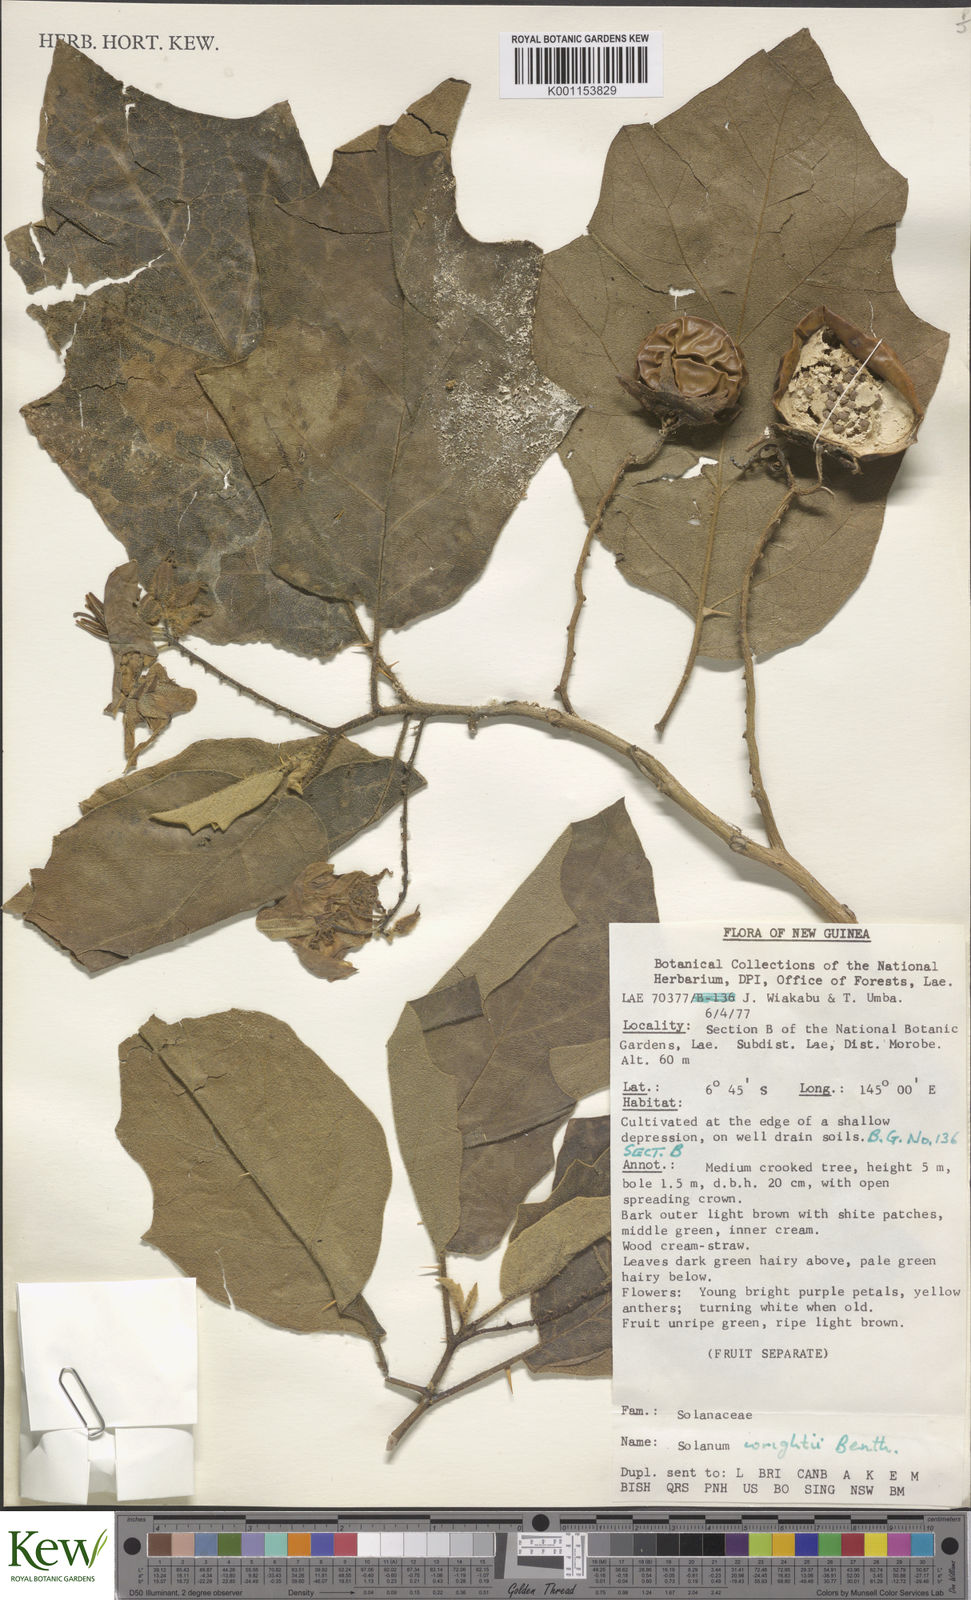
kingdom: Plantae
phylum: Tracheophyta
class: Magnoliopsida
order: Solanales
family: Solanaceae
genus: Solanum
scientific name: Solanum wrightii
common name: Brazilian potato-tree
